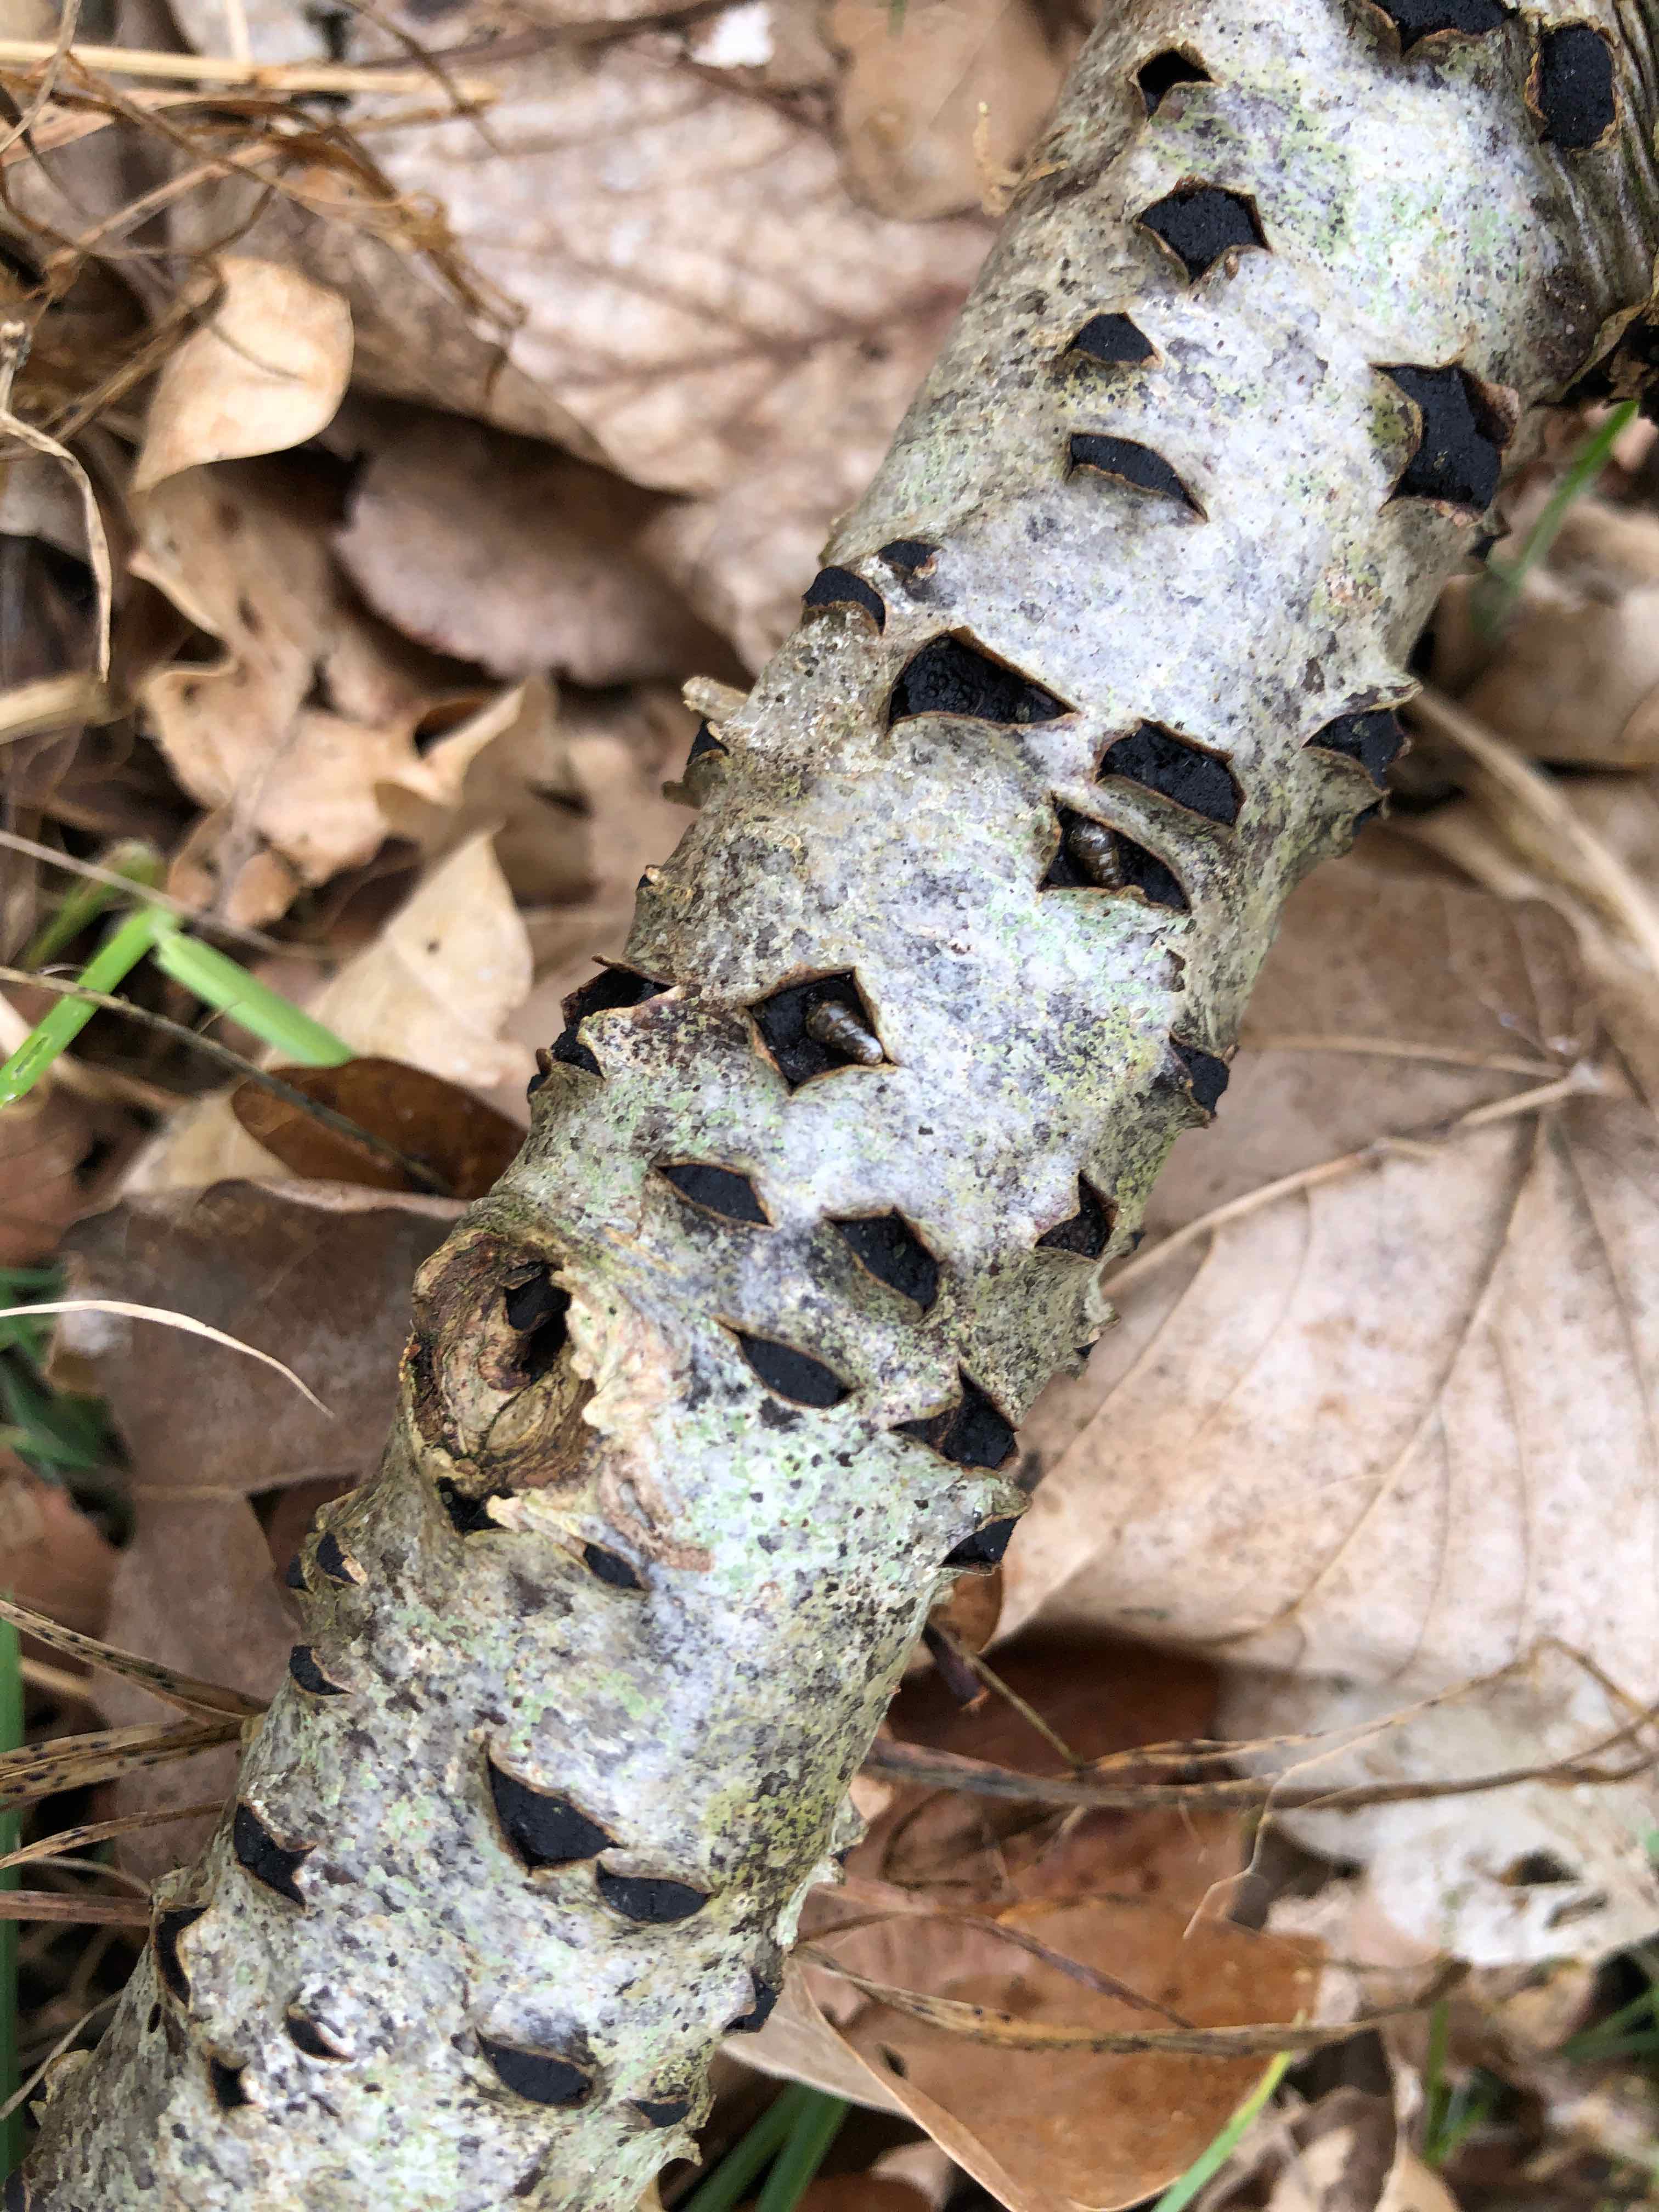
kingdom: Fungi
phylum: Ascomycota
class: Sordariomycetes
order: Xylariales
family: Diatrypaceae
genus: Eutypella
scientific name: Eutypella sorbi
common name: rønne-kulskorpe
